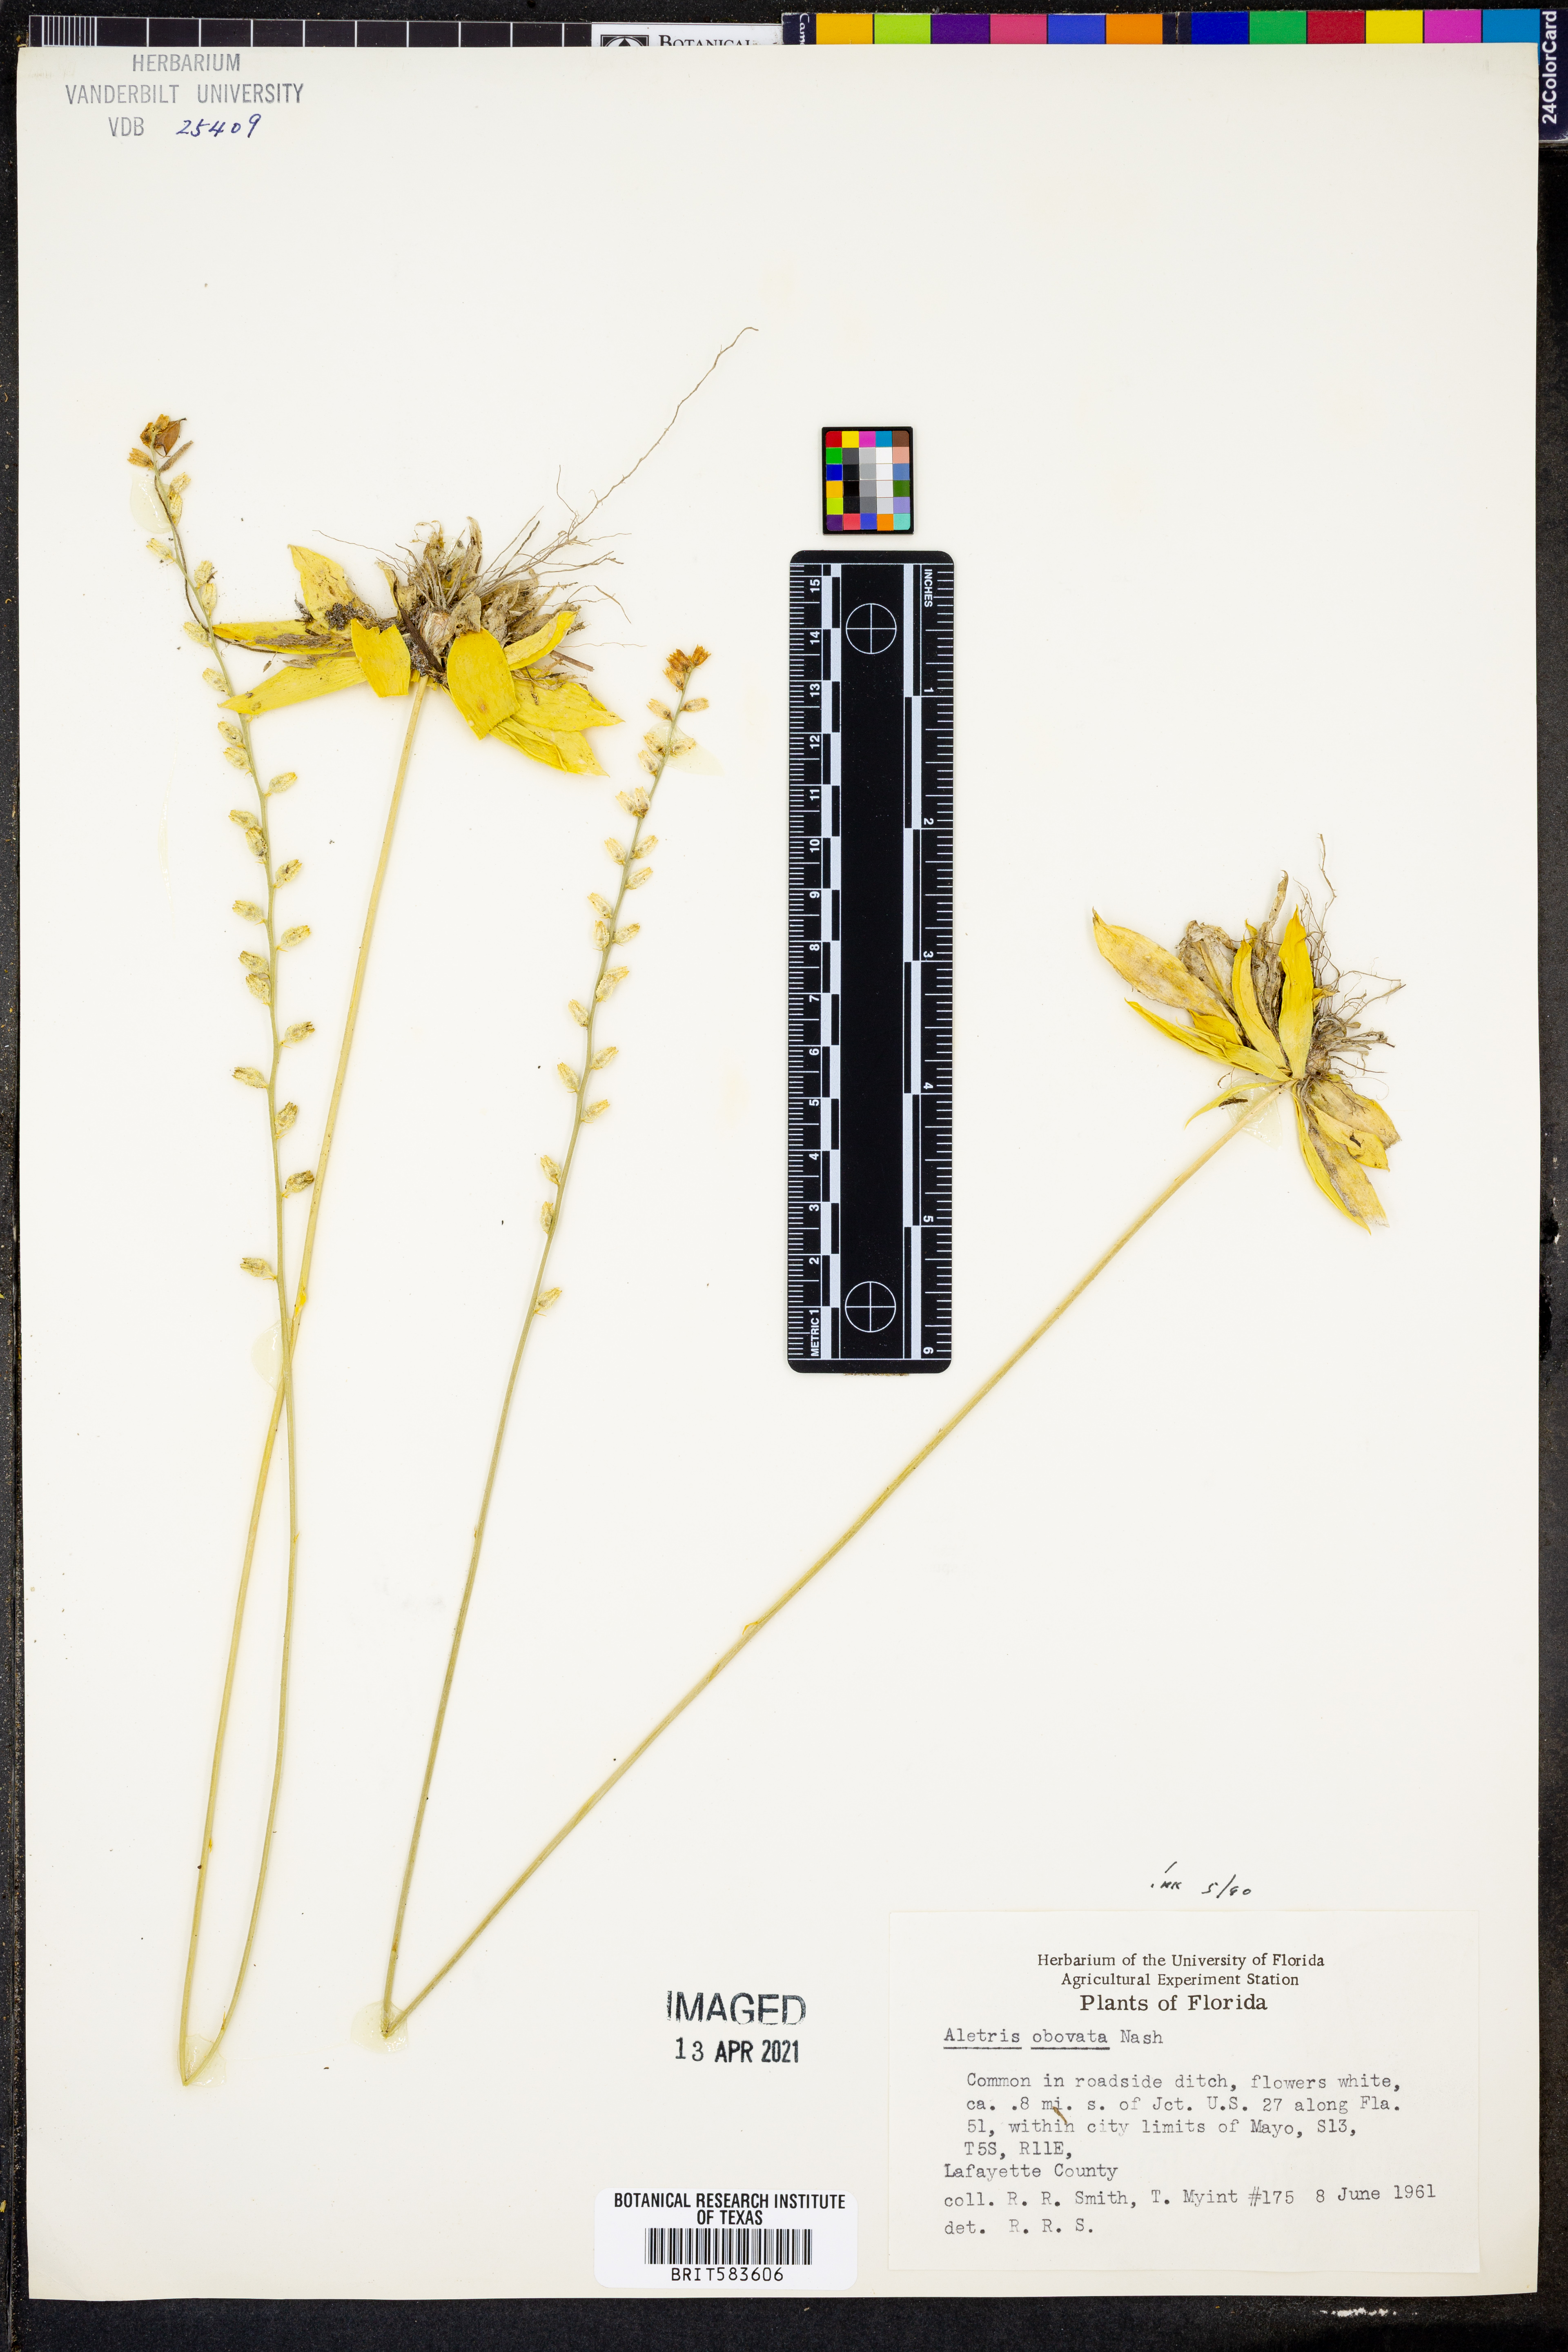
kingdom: Plantae
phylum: Tracheophyta
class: Liliopsida
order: Dioscoreales
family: Nartheciaceae
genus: Aletris
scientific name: Aletris obovata
